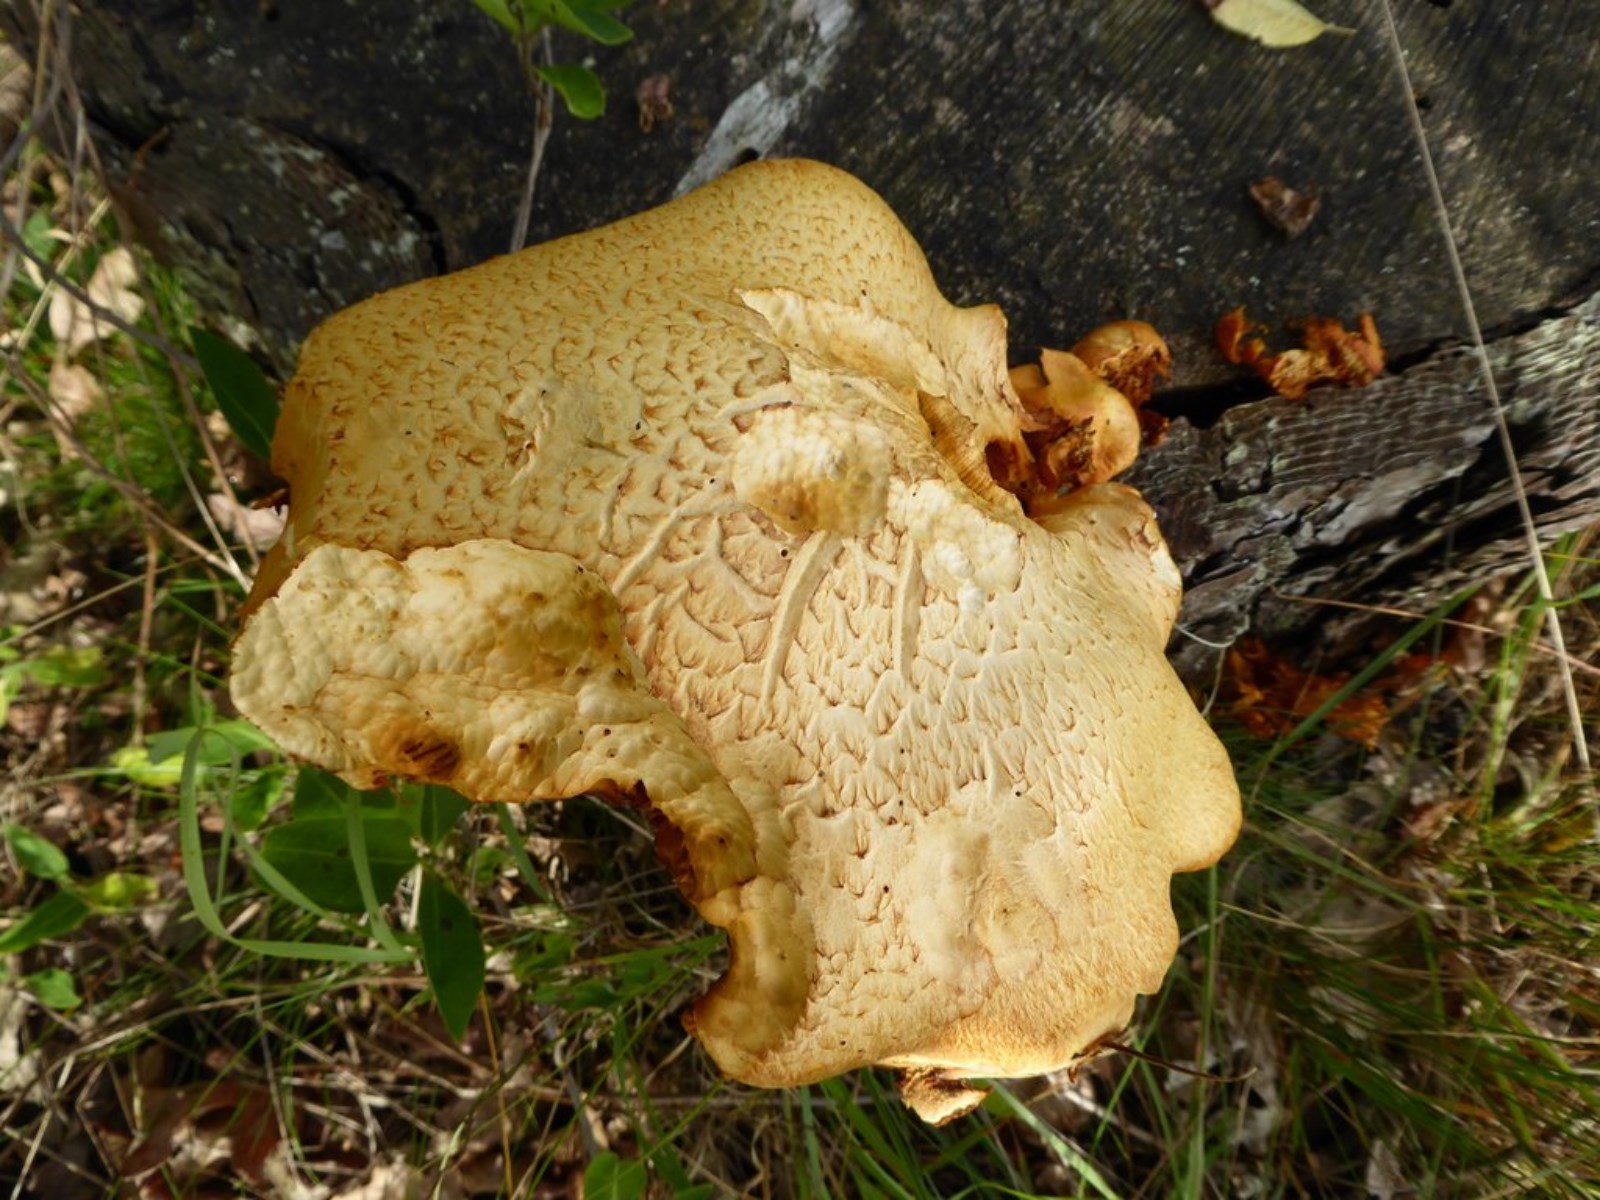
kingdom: Fungi
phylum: Basidiomycota
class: Agaricomycetes
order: Agaricales
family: Hymenogastraceae
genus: Gymnopilus
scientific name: Gymnopilus spectabilis
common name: fibret flammehat
